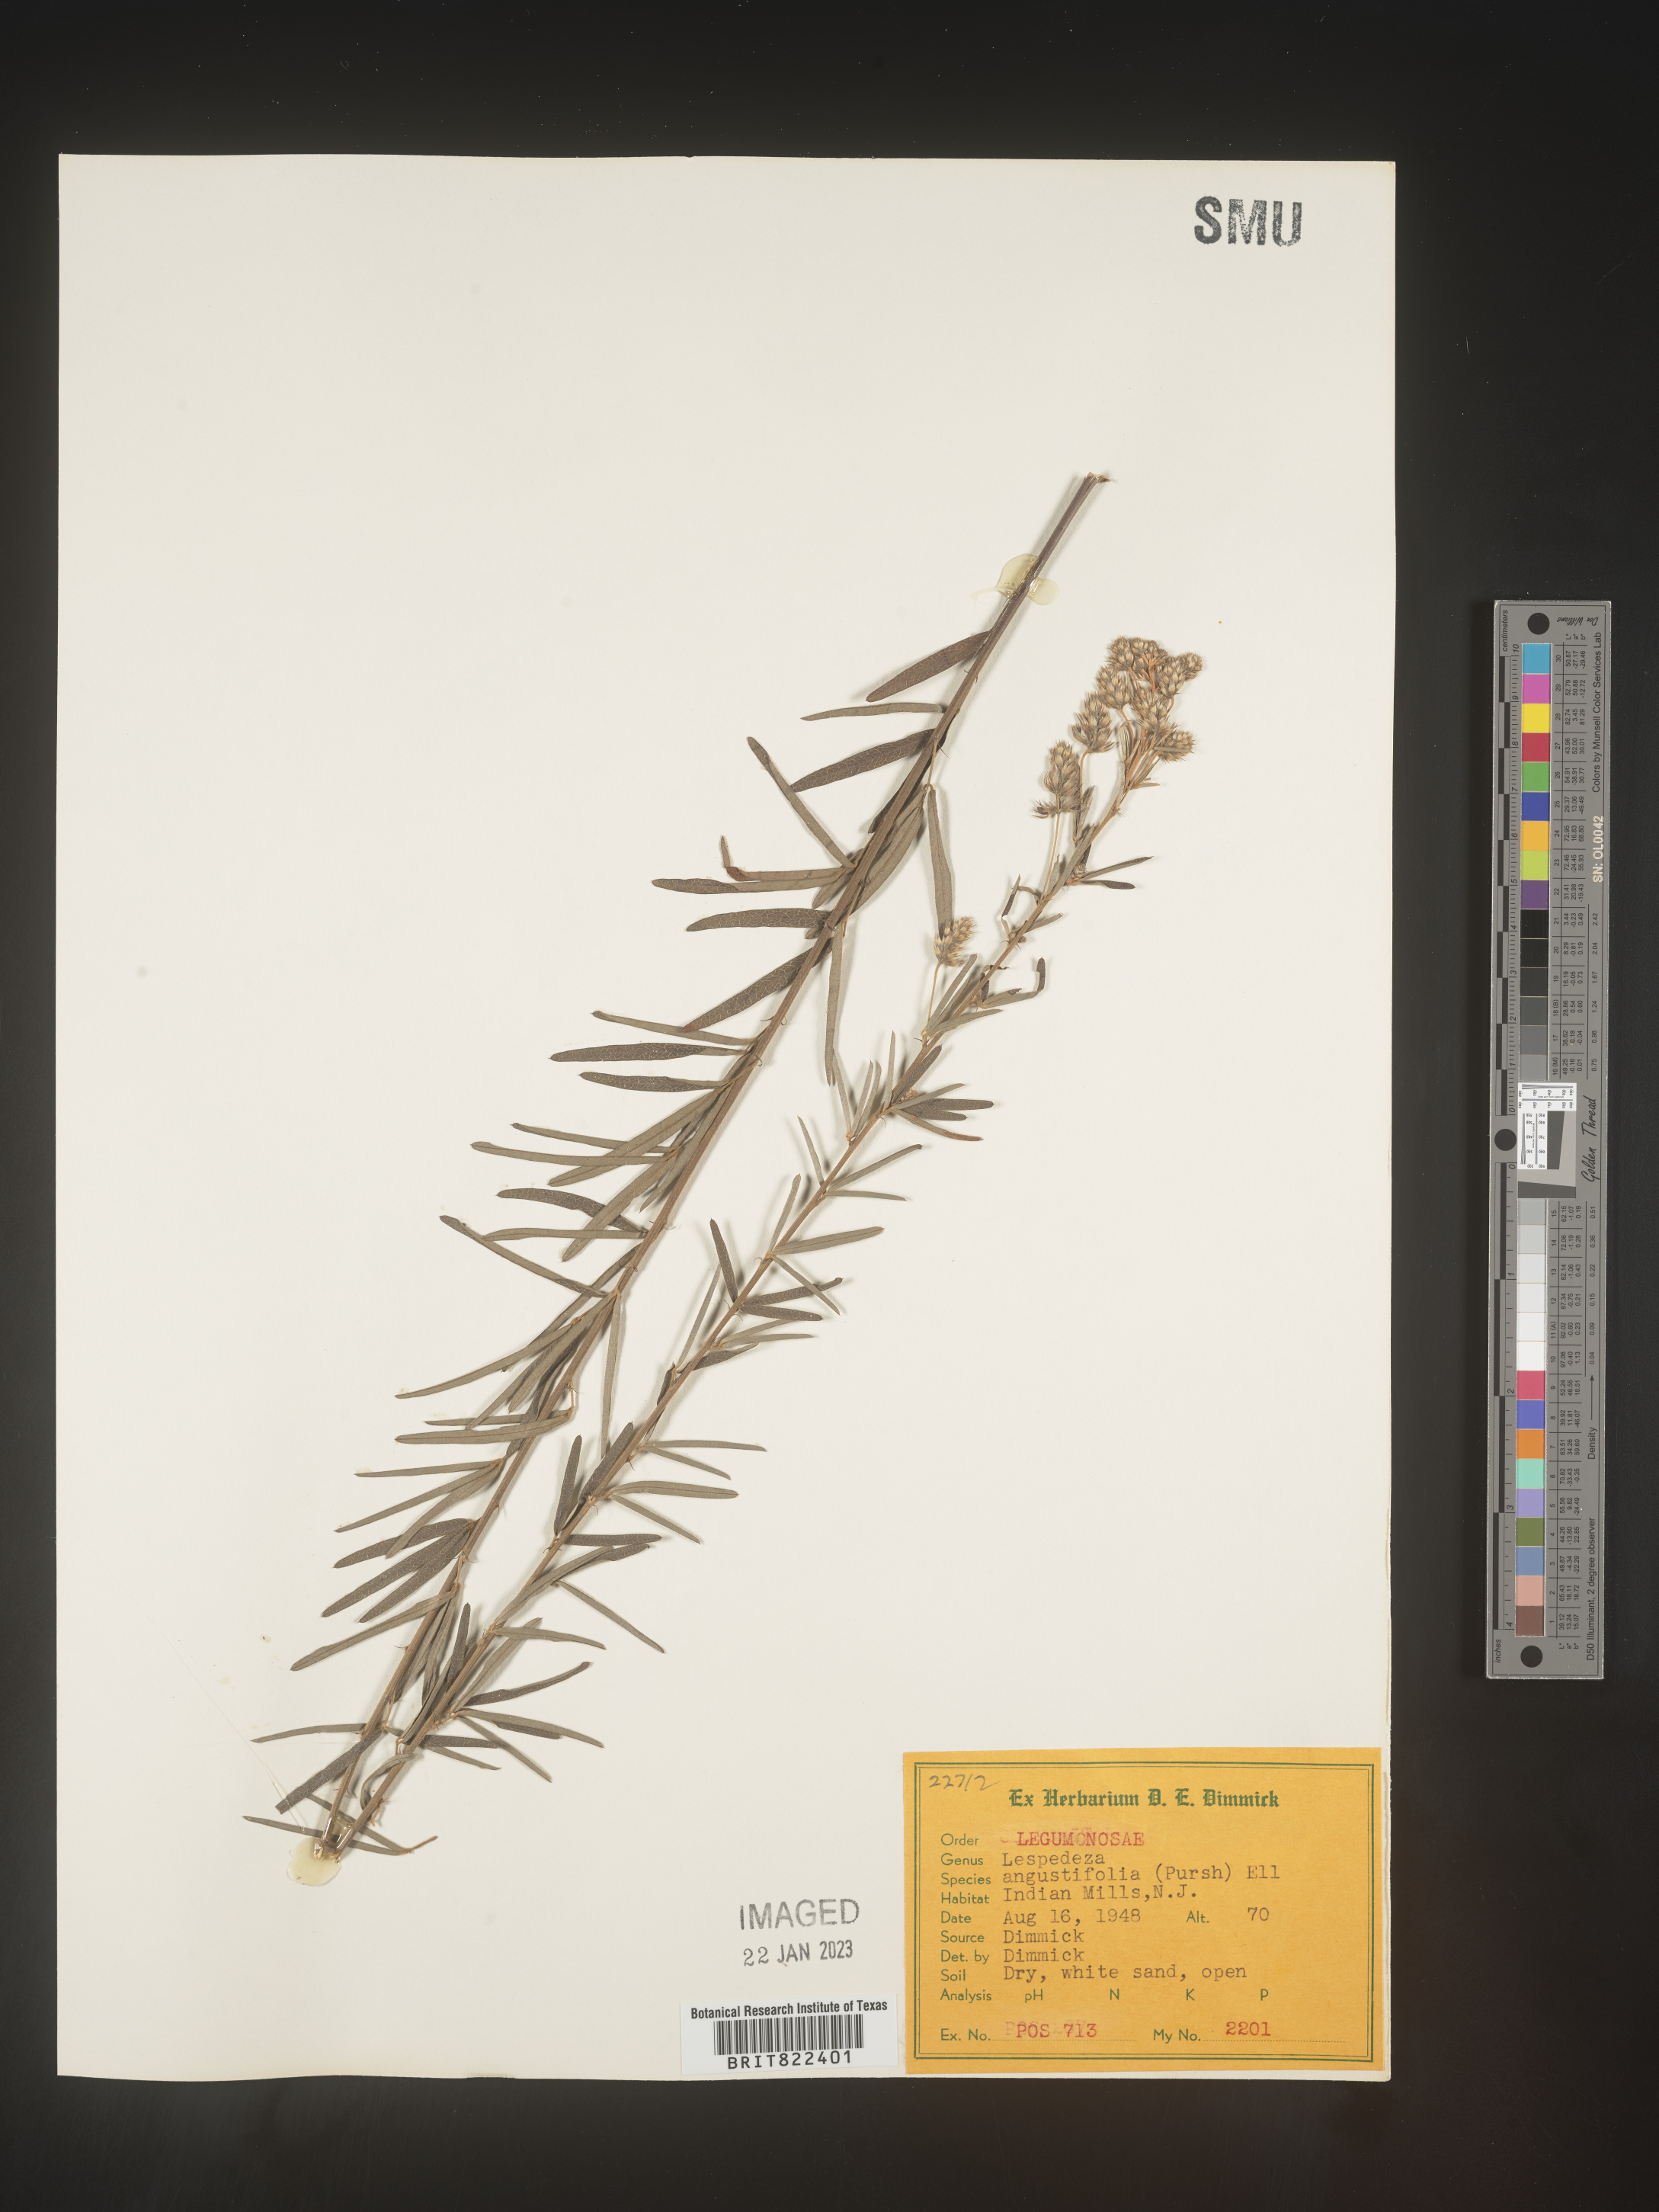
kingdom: Plantae
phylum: Tracheophyta
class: Magnoliopsida
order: Fabales
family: Fabaceae
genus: Lespedeza
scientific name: Lespedeza
